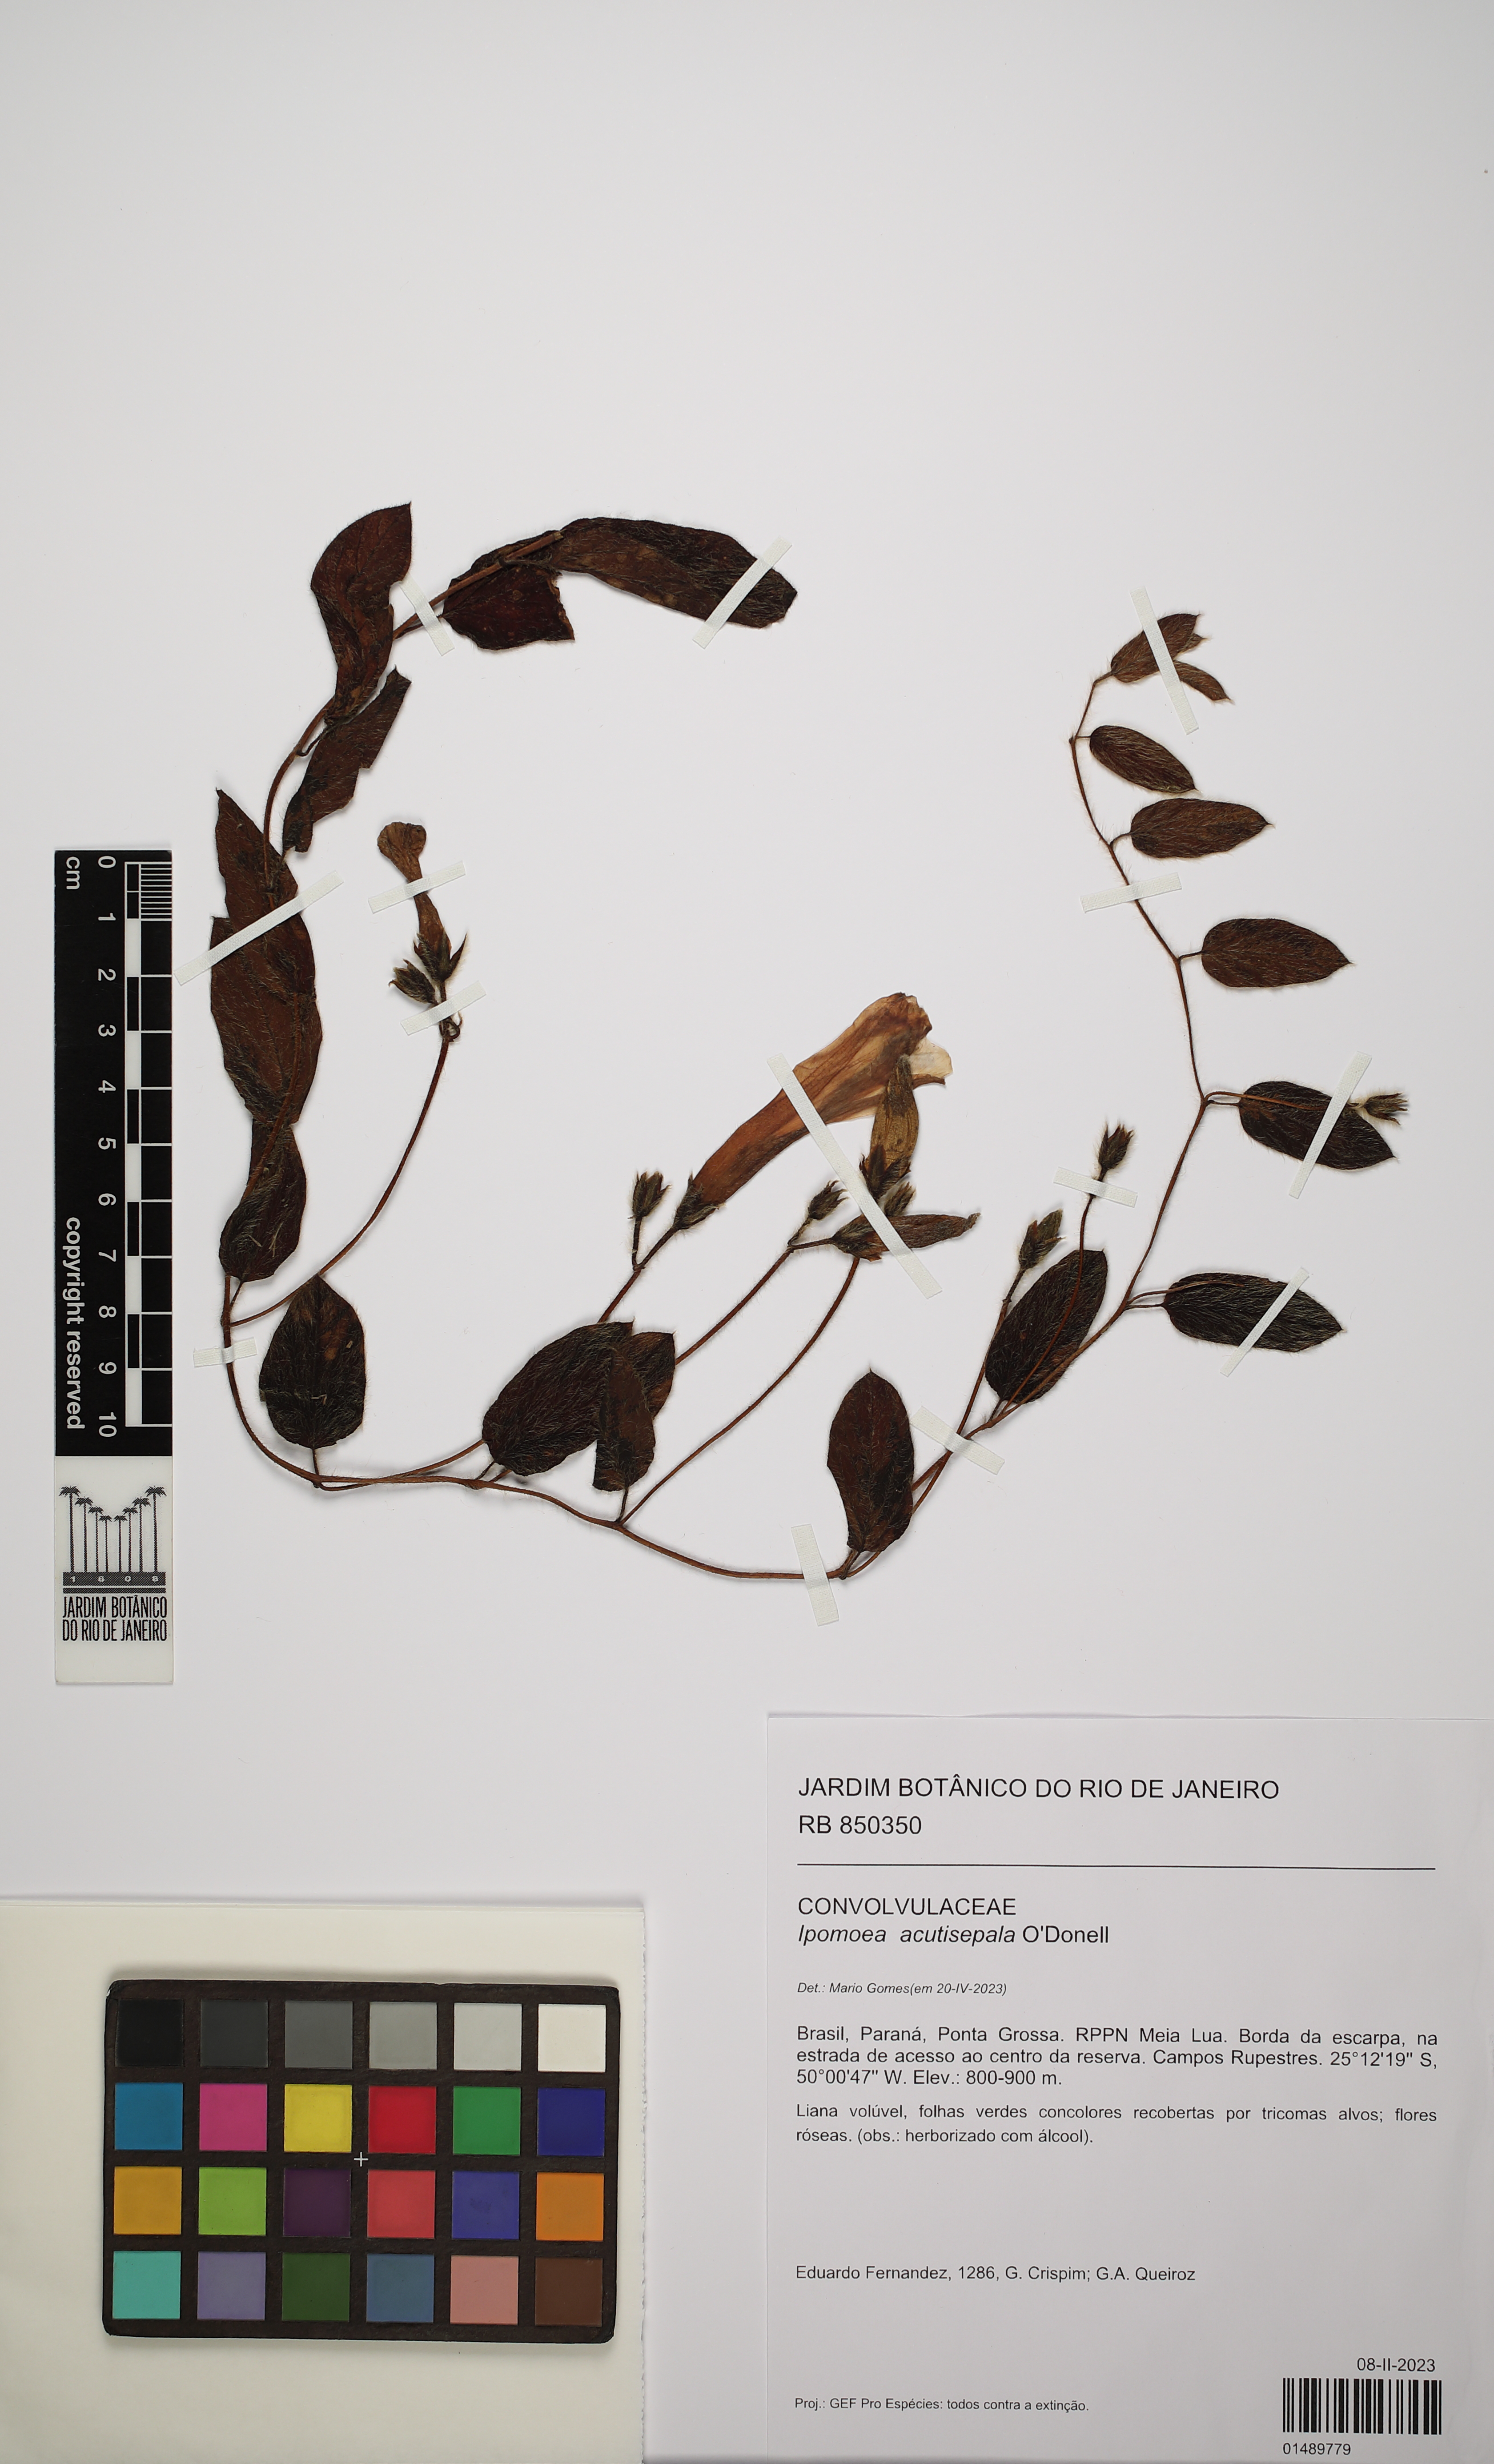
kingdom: Plantae
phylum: Tracheophyta
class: Magnoliopsida
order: Solanales
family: Convolvulaceae
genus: Ipomoea
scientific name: Ipomoea acutisepala
